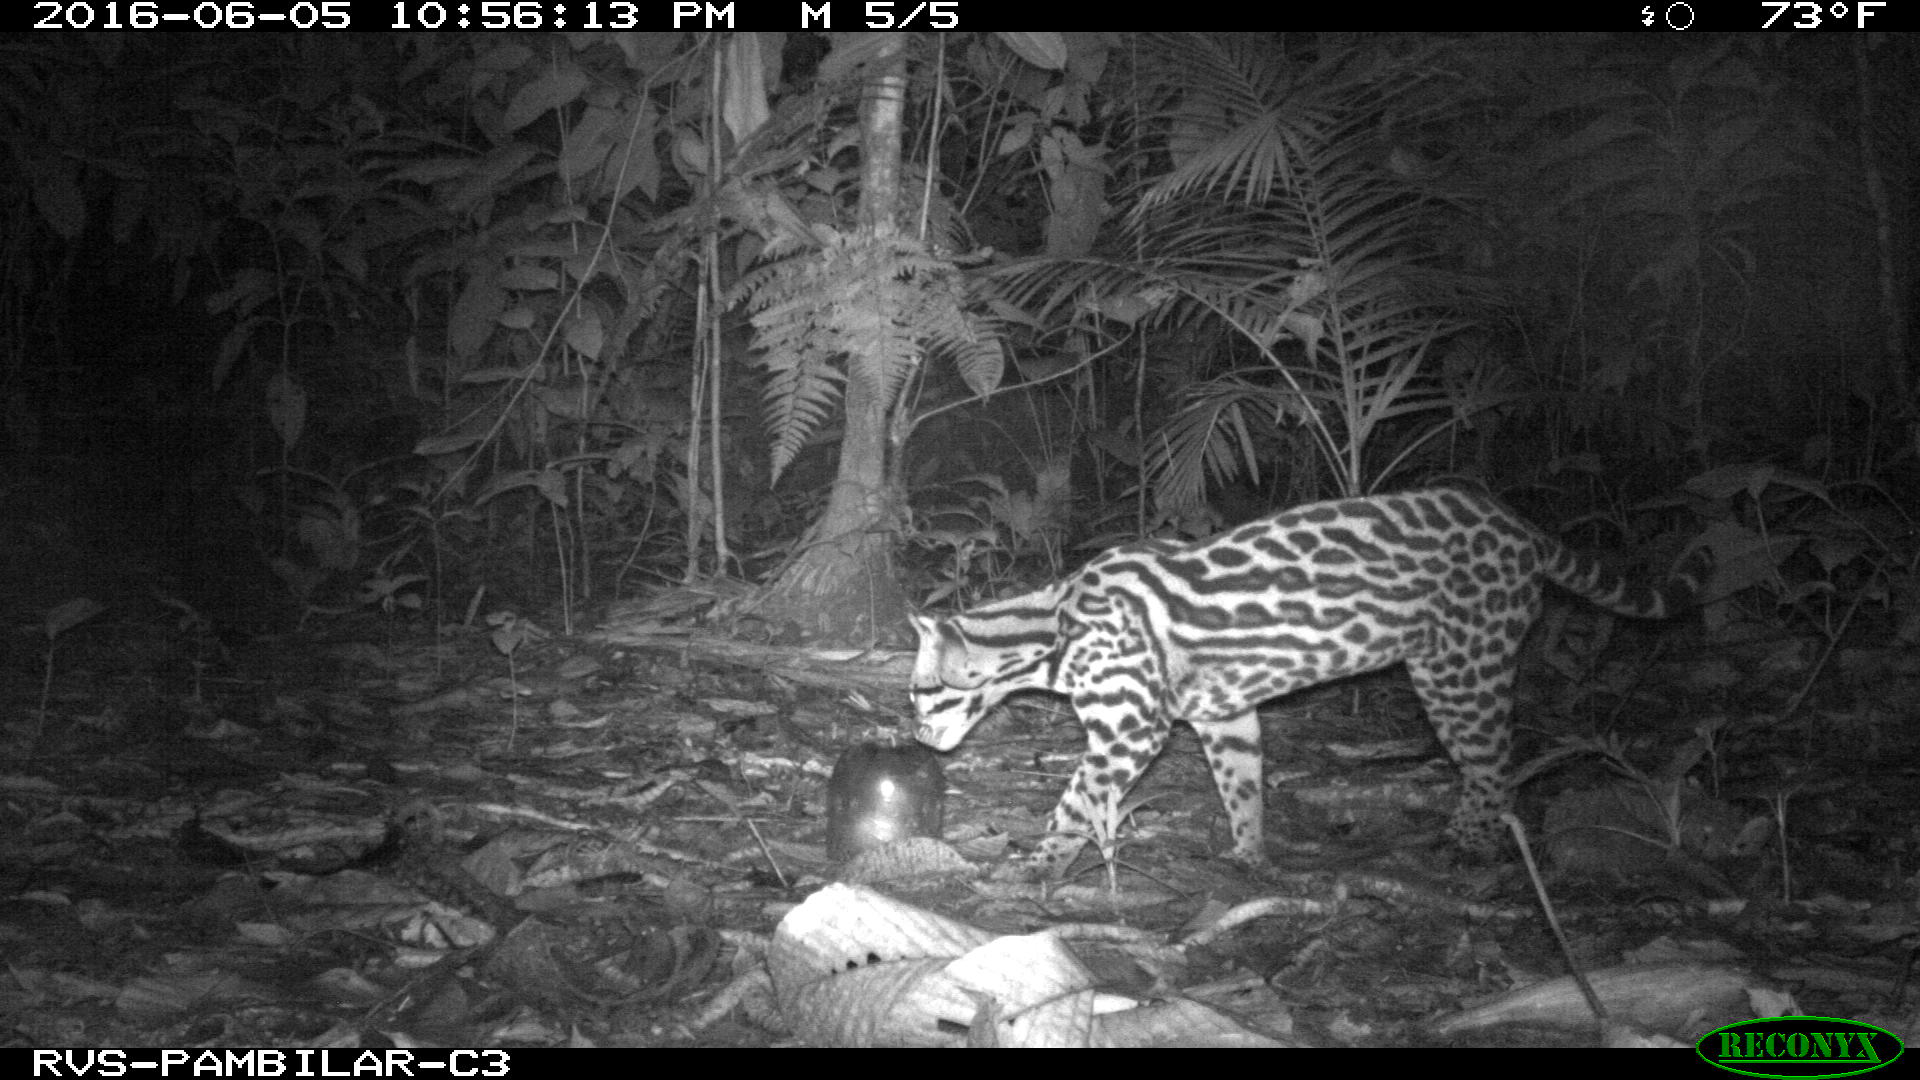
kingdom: Animalia
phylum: Chordata
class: Mammalia
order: Carnivora
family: Felidae
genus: Leopardus
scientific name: Leopardus pardalis
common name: Ocelot
